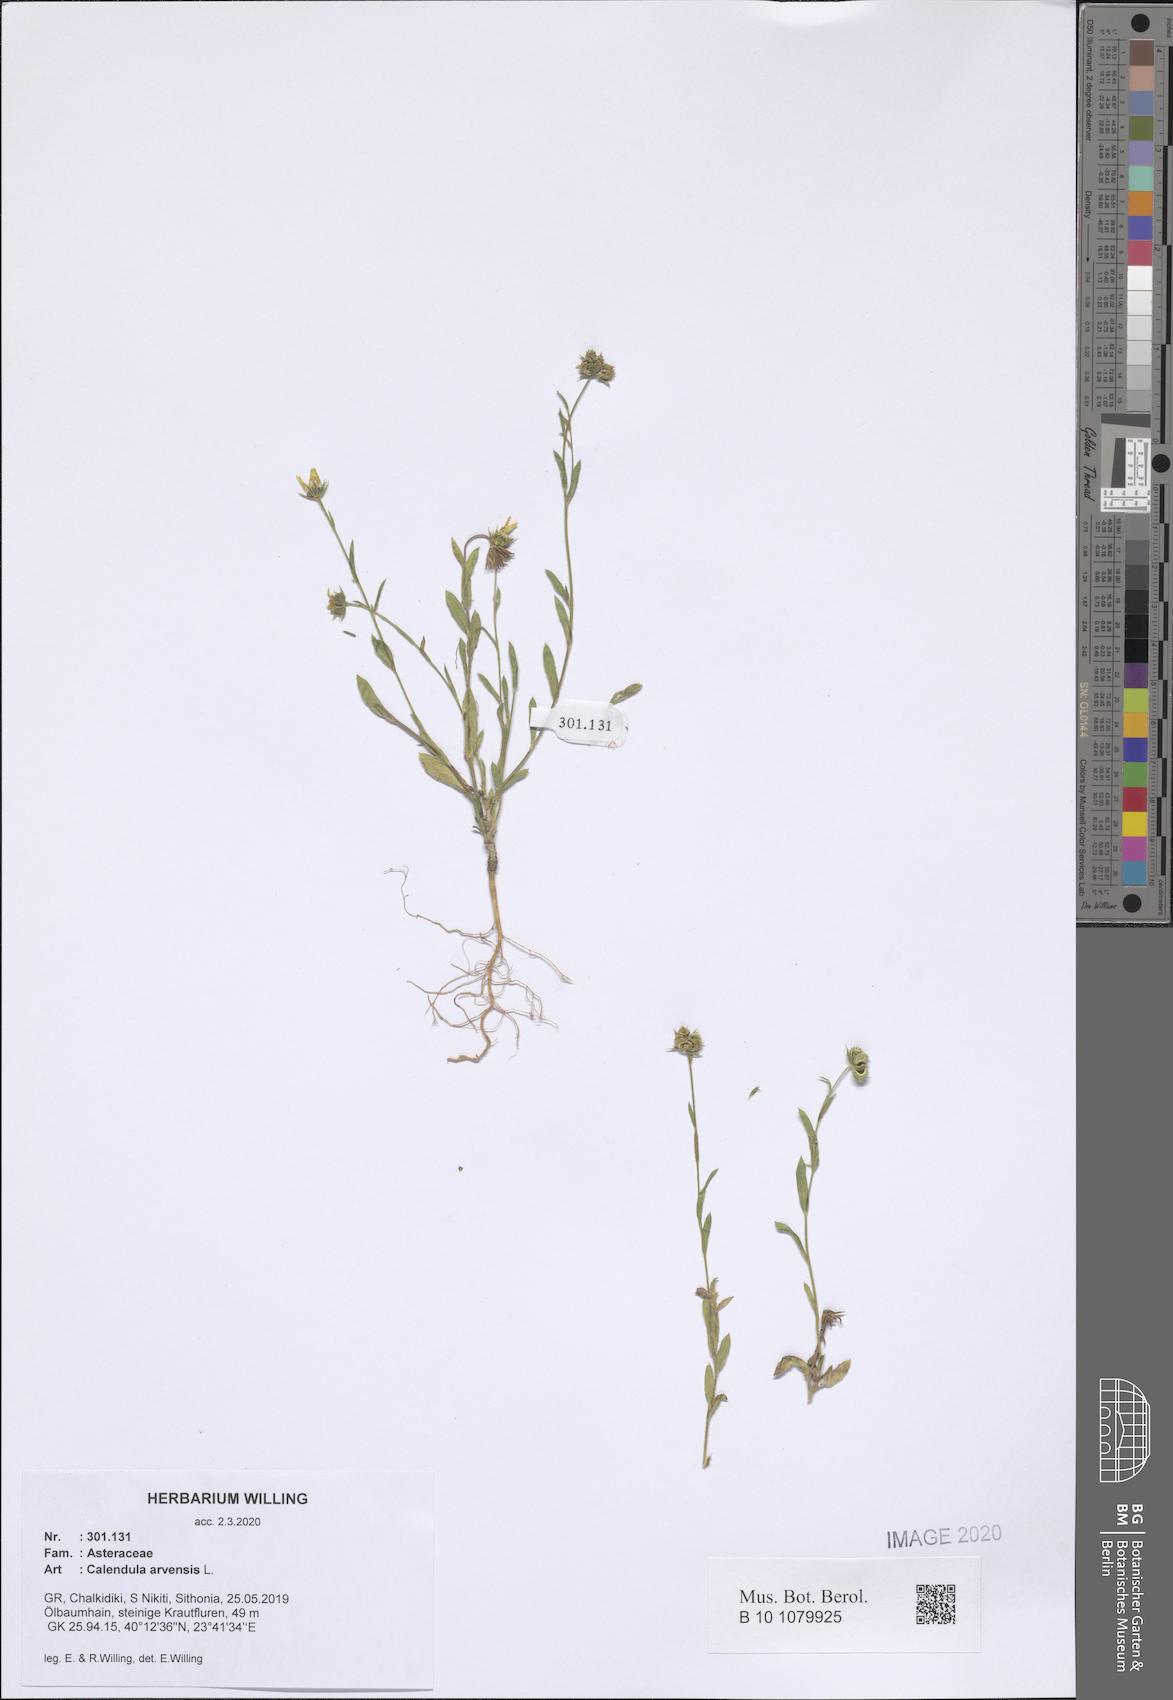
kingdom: Plantae
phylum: Tracheophyta
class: Magnoliopsida
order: Asterales
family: Asteraceae
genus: Calendula
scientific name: Calendula arvensis
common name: Field marigold
